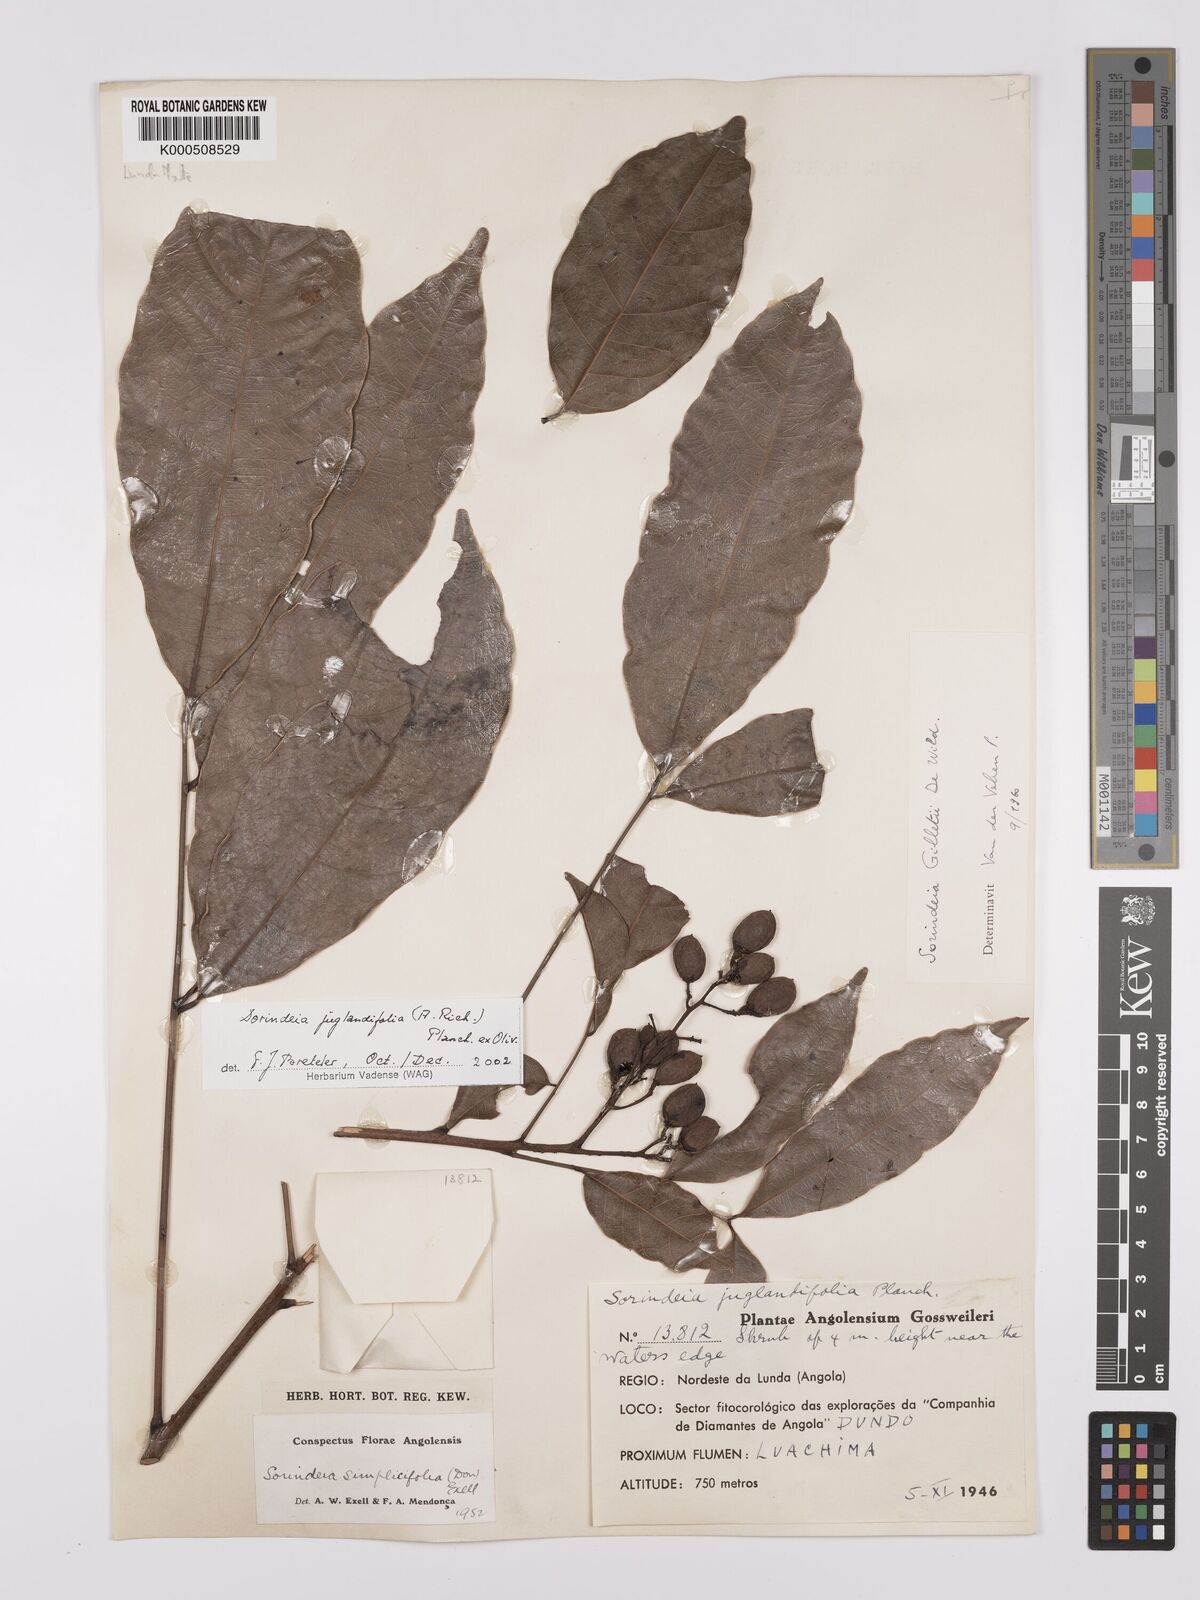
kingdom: Plantae
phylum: Tracheophyta
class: Magnoliopsida
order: Sapindales
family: Anacardiaceae
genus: Sorindeia
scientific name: Sorindeia juglandifolia
